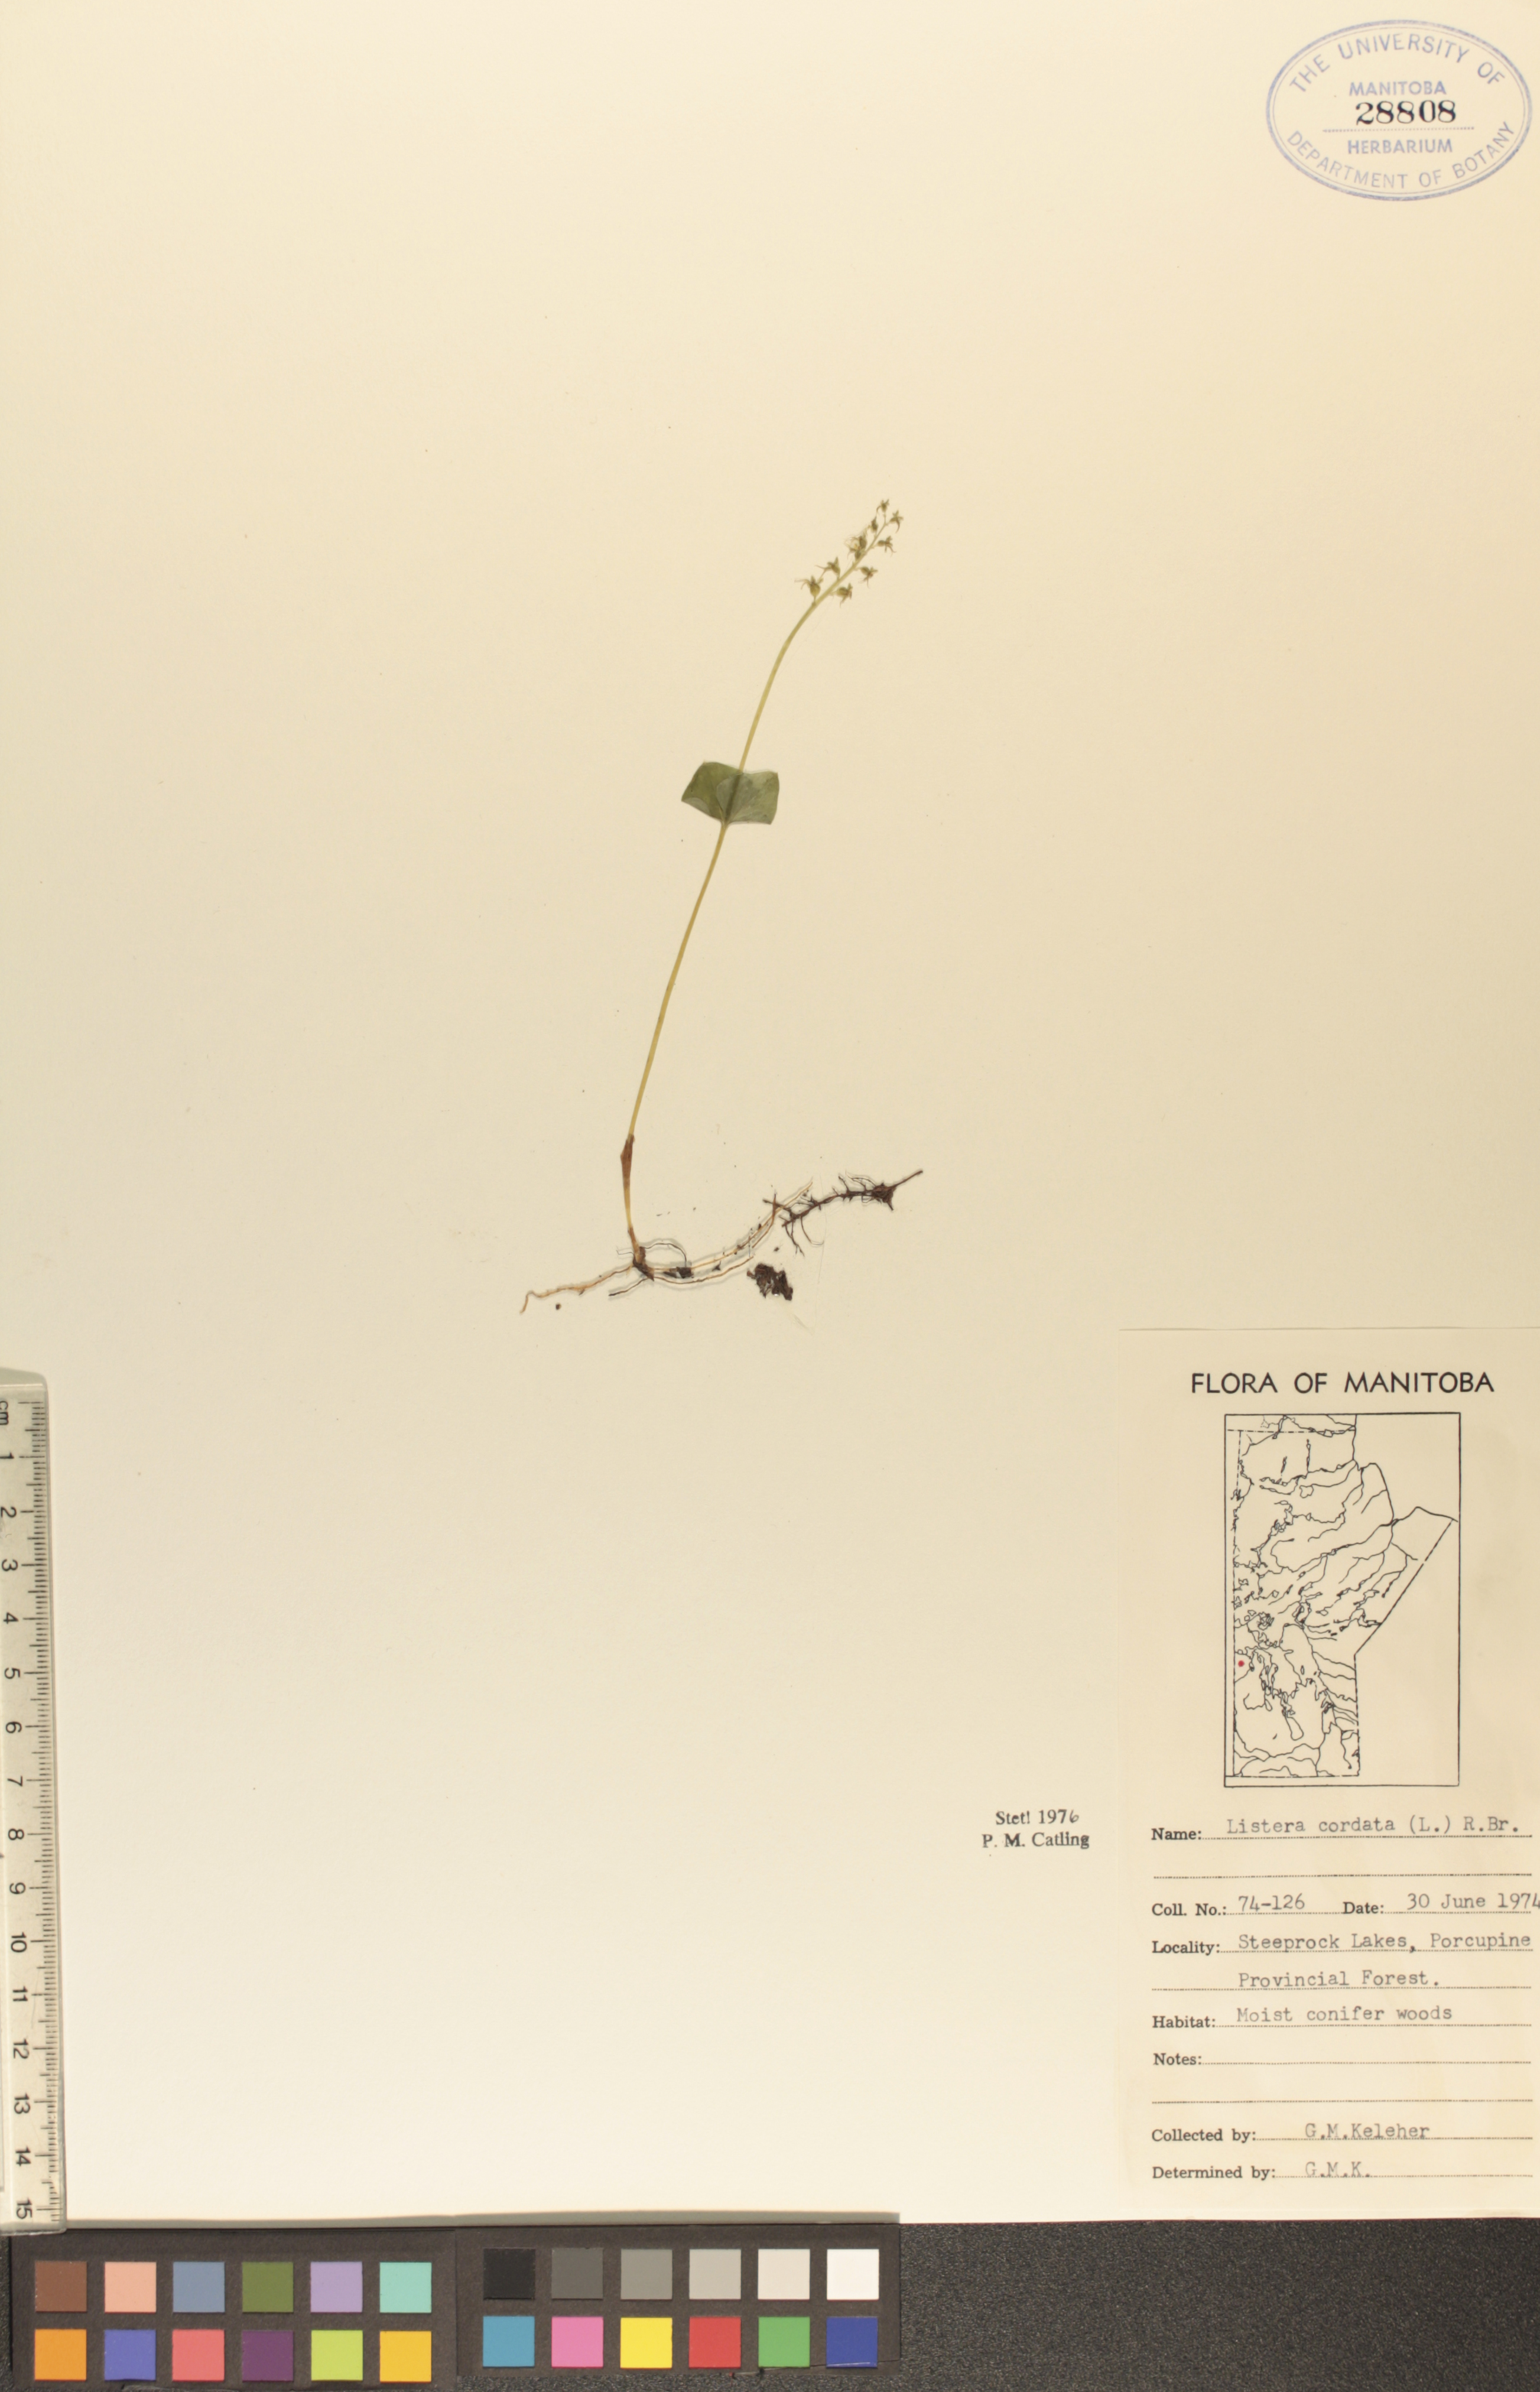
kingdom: Plantae
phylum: Tracheophyta
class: Liliopsida
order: Asparagales
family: Orchidaceae
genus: Neottia
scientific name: Neottia cordata
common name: Lesser twayblade
